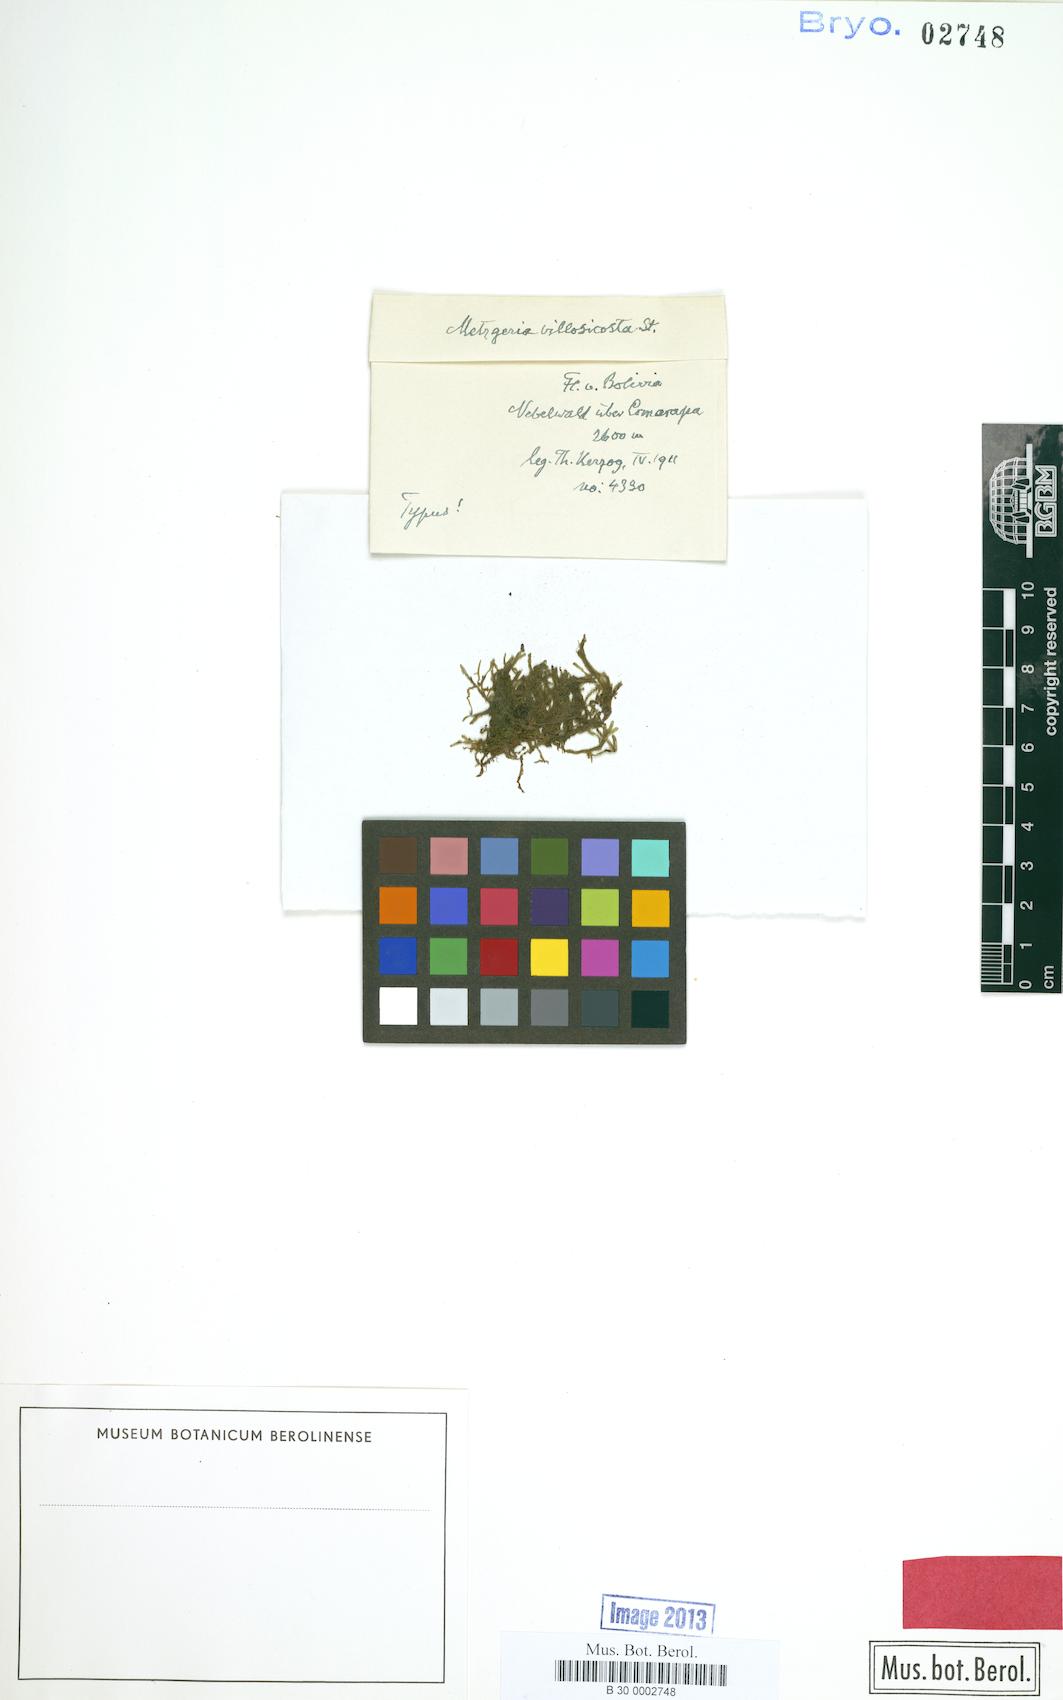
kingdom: Plantae
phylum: Marchantiophyta
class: Jungermanniopsida
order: Metzgeriales
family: Metzgeriaceae
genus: Metzgeria
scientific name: Metzgeria leptoneura
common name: Hooked veilwort
